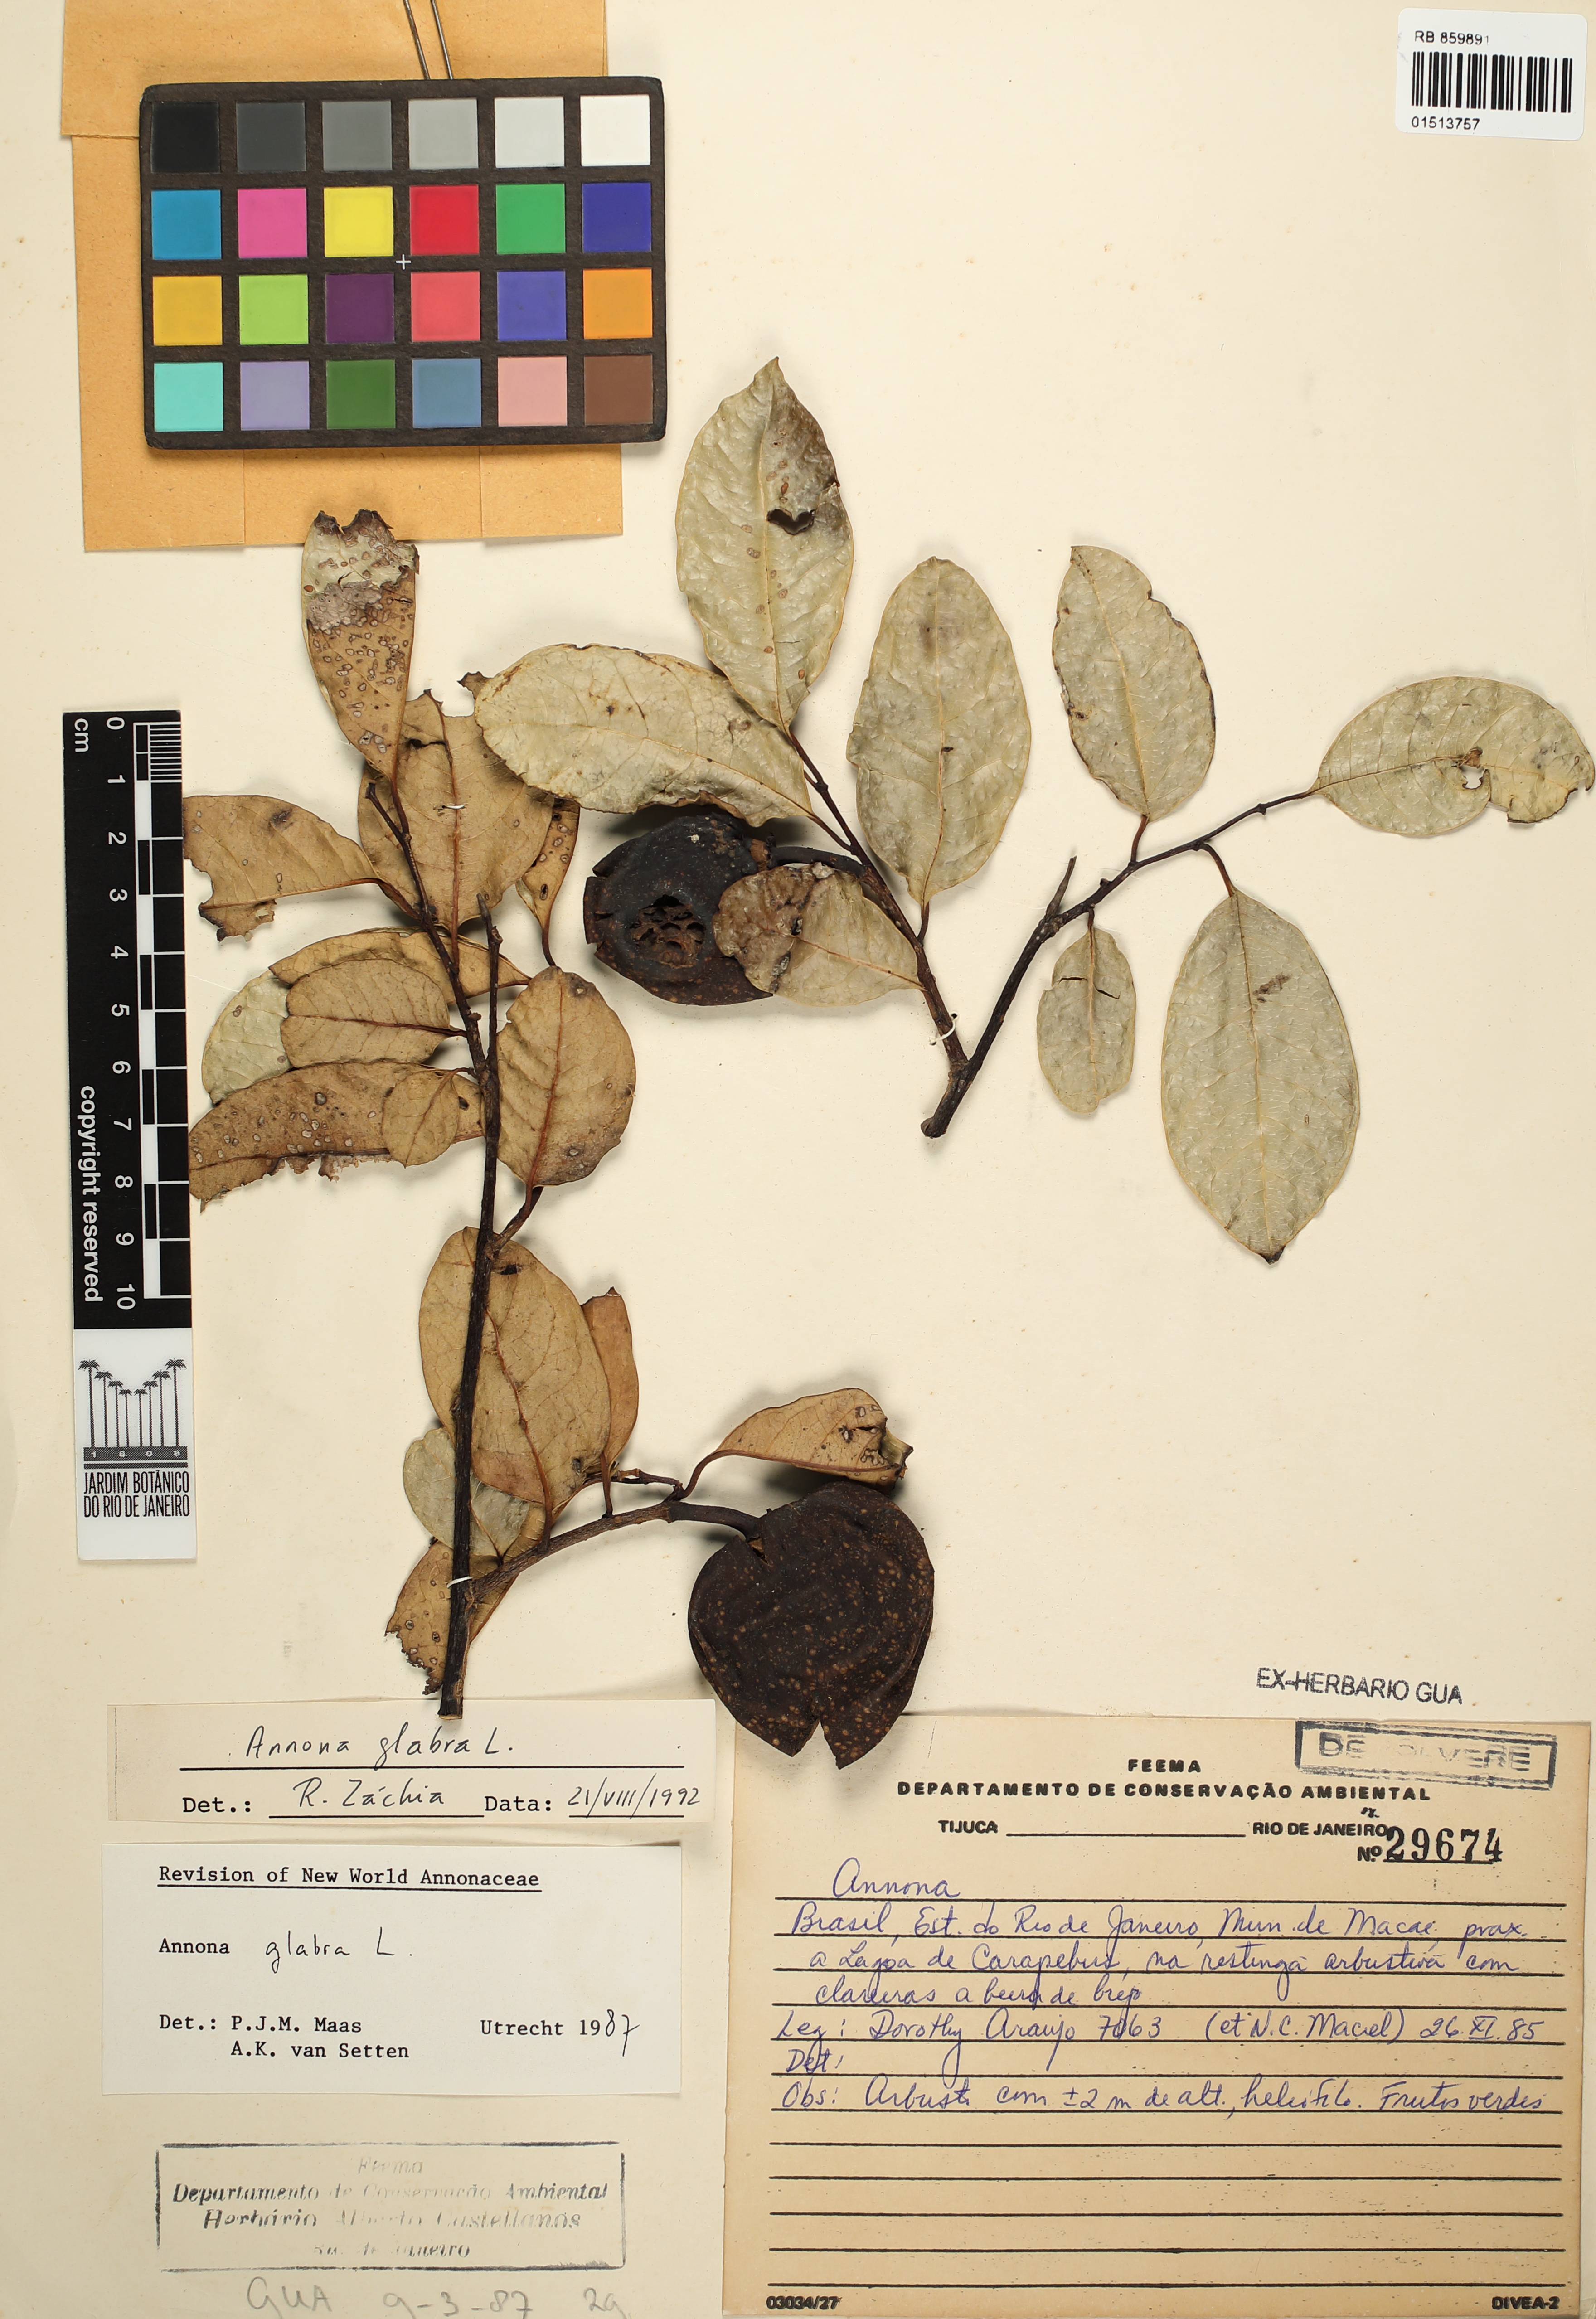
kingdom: Plantae
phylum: Tracheophyta
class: Magnoliopsida
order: Magnoliales
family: Annonaceae
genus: Annona
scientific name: Annona glabra
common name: Monkey apple
